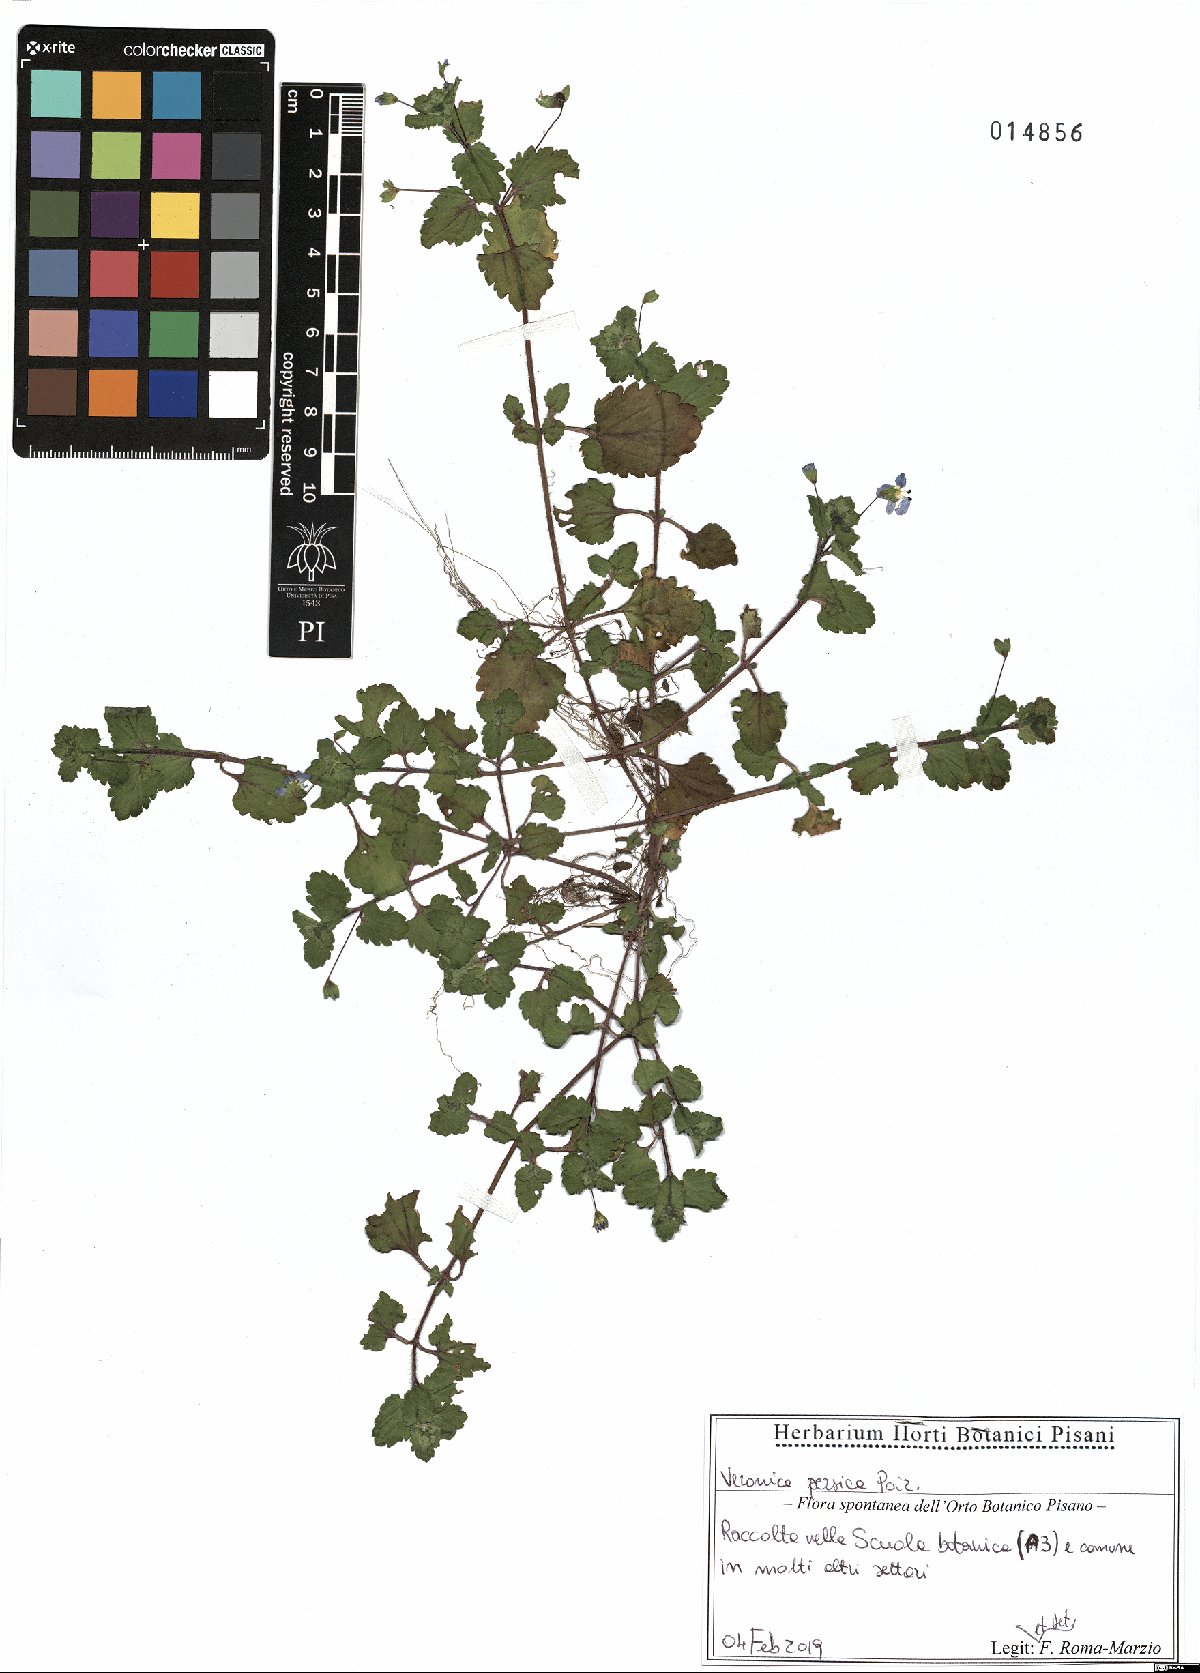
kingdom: Plantae
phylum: Tracheophyta
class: Magnoliopsida
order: Lamiales
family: Plantaginaceae
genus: Veronica
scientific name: Veronica persica
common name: Common field-speedwell
